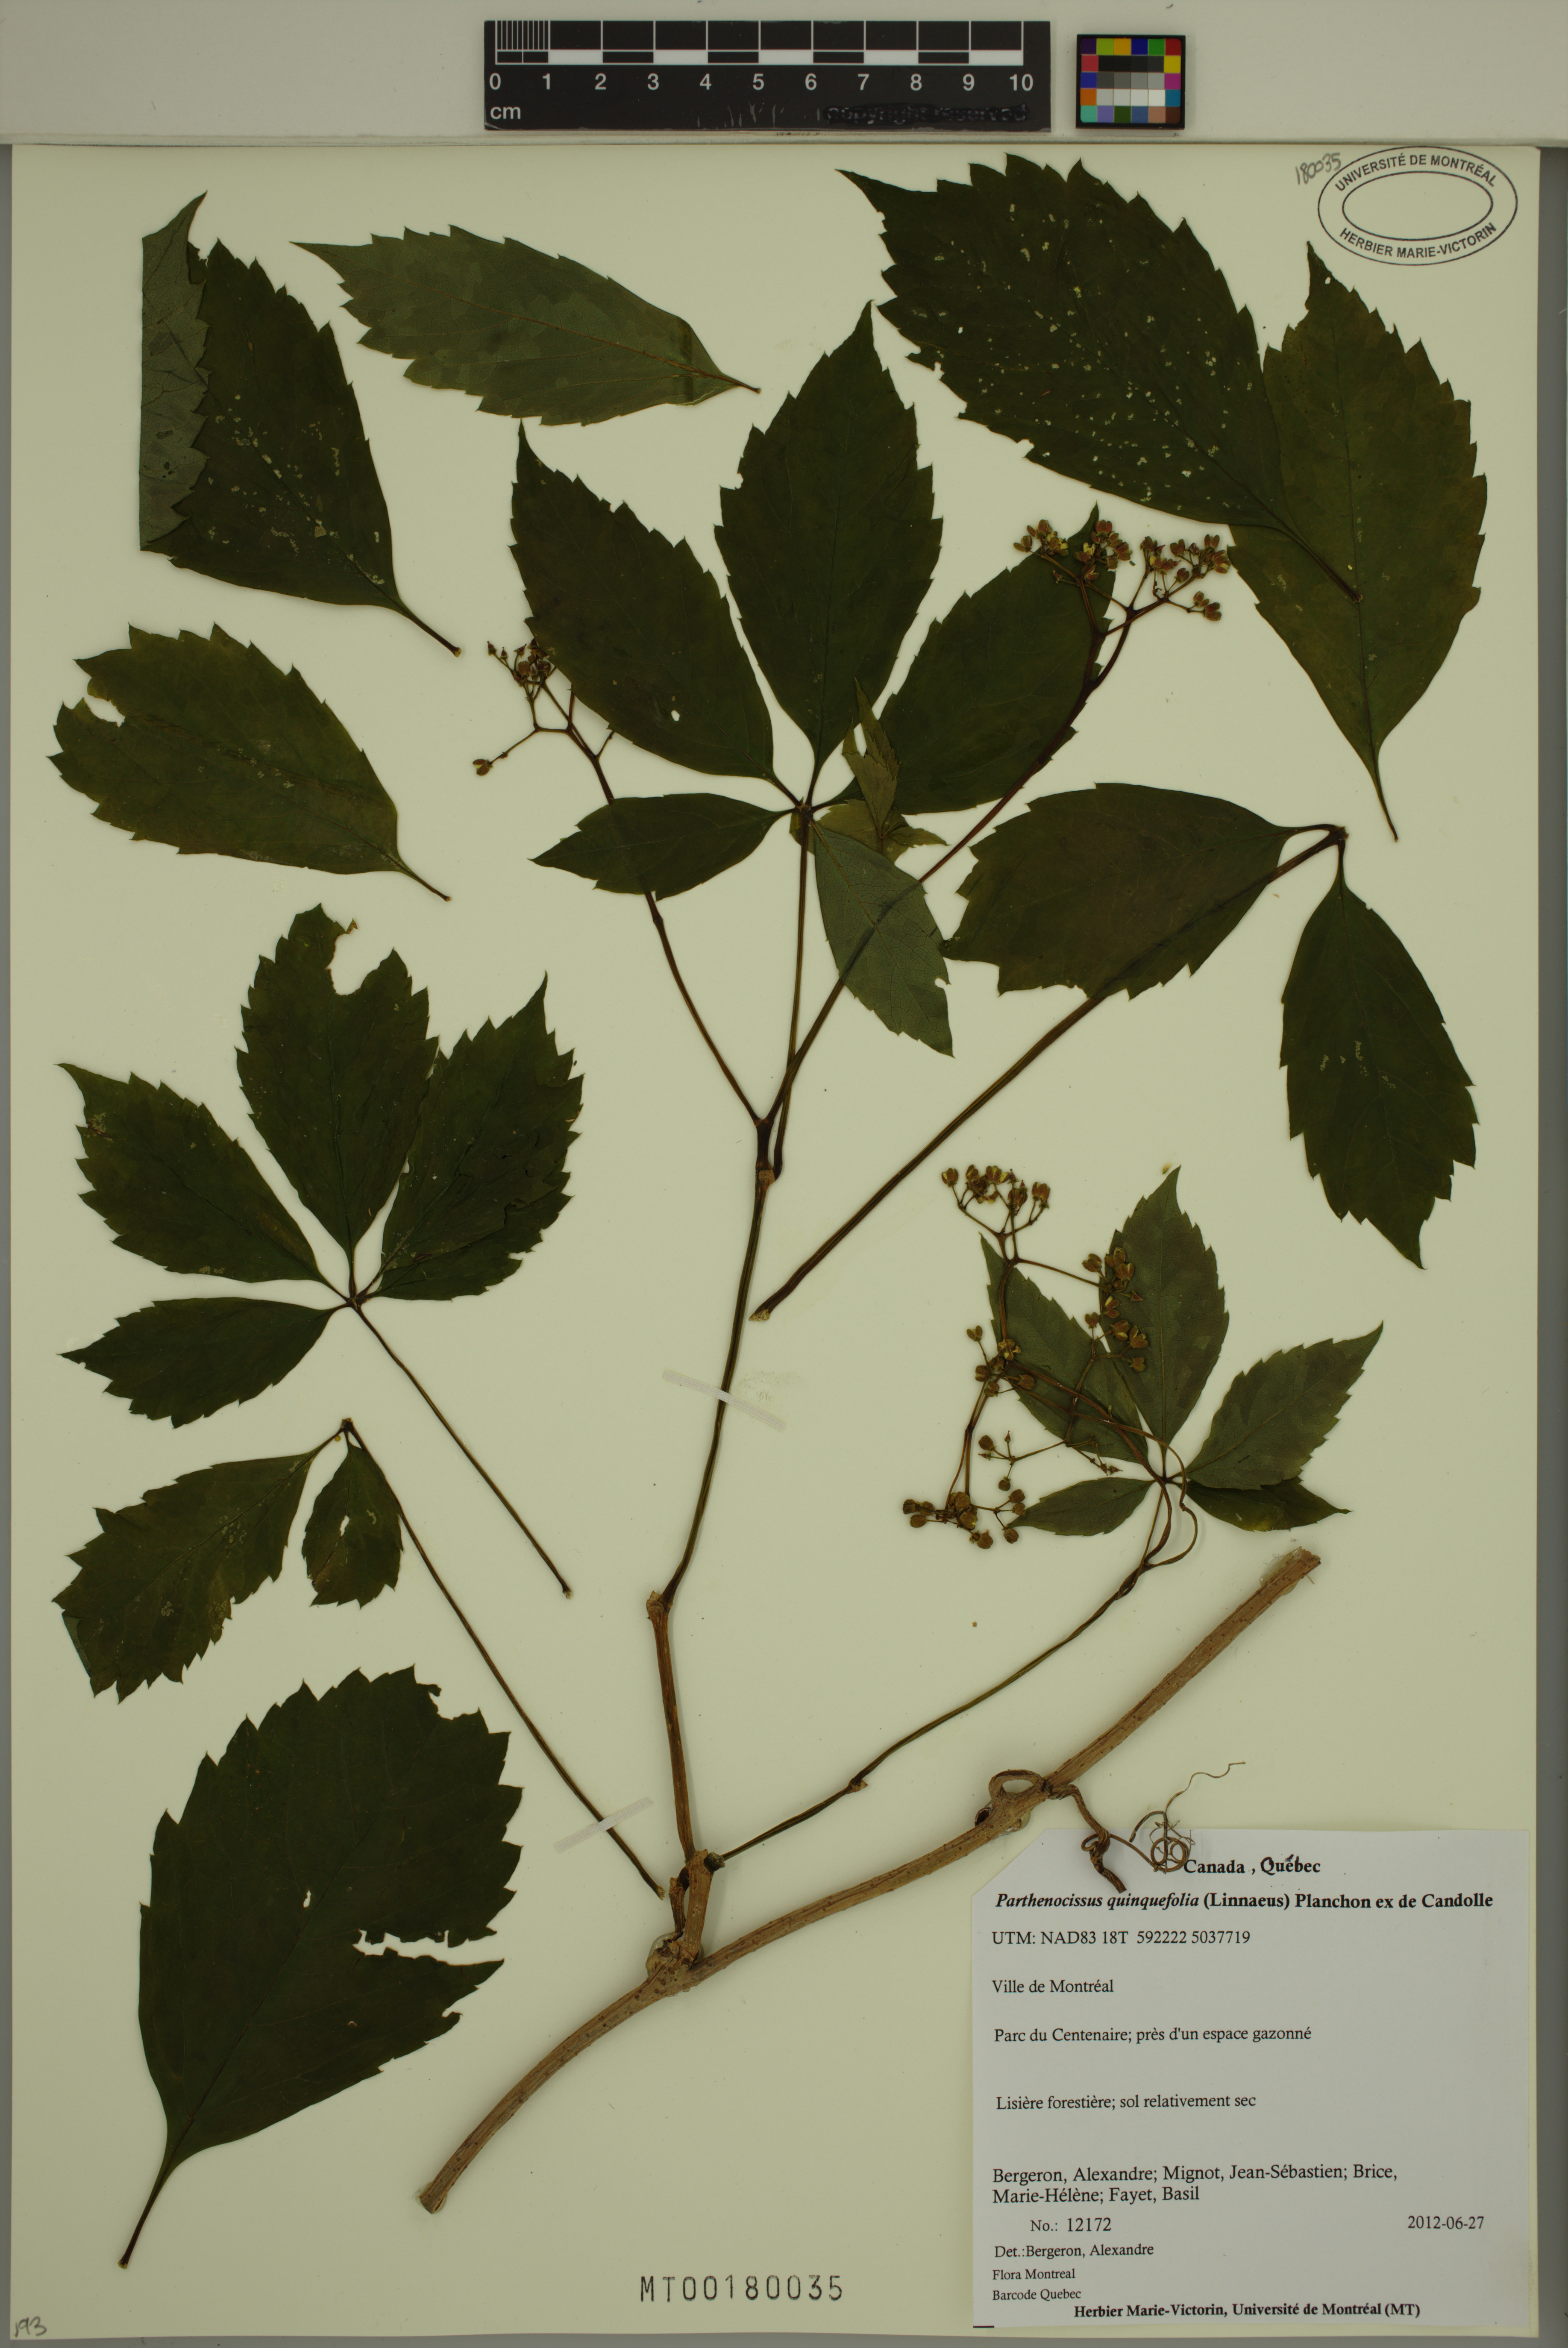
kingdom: Plantae
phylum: Tracheophyta
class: Magnoliopsida
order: Vitales
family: Vitaceae
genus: Parthenocissus
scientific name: Parthenocissus quinquefolia
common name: Virginia-creeper
